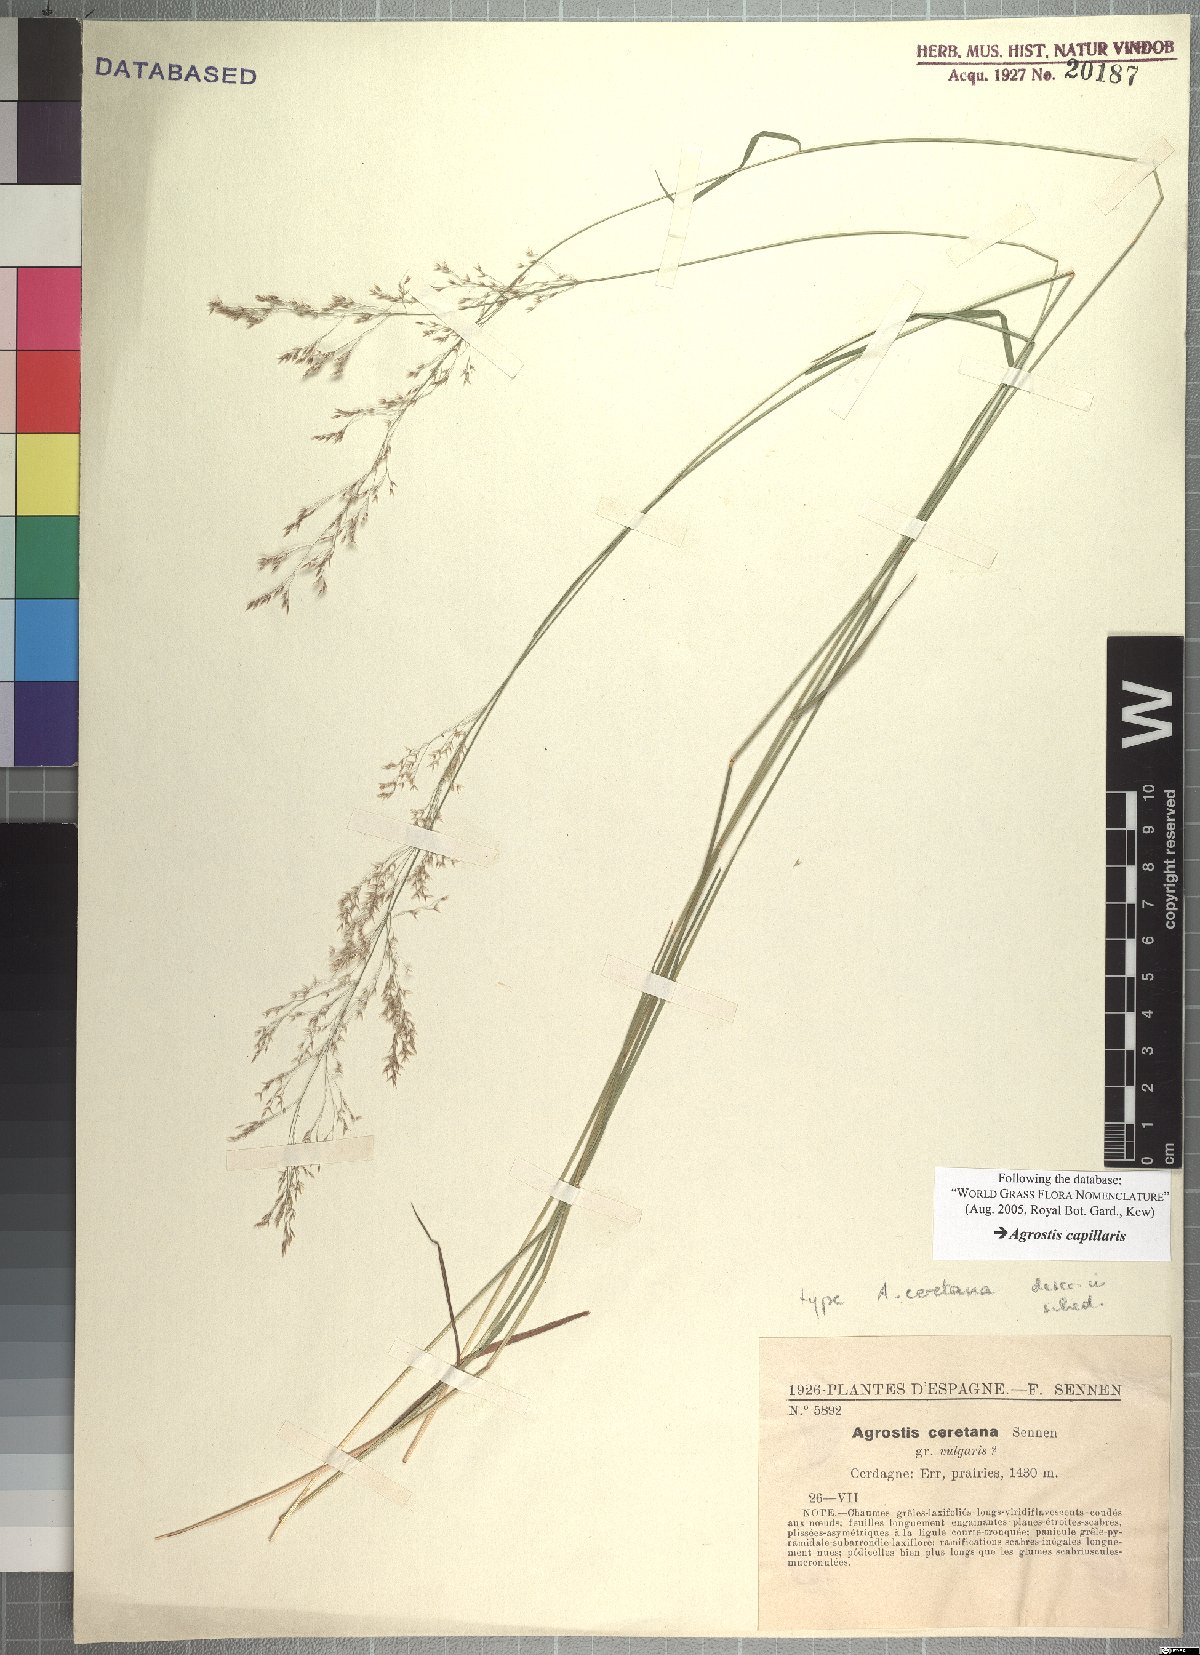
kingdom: Plantae
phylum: Tracheophyta
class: Liliopsida
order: Poales
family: Poaceae
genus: Agrostis
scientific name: Agrostis capillaris
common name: Colonial bentgrass
